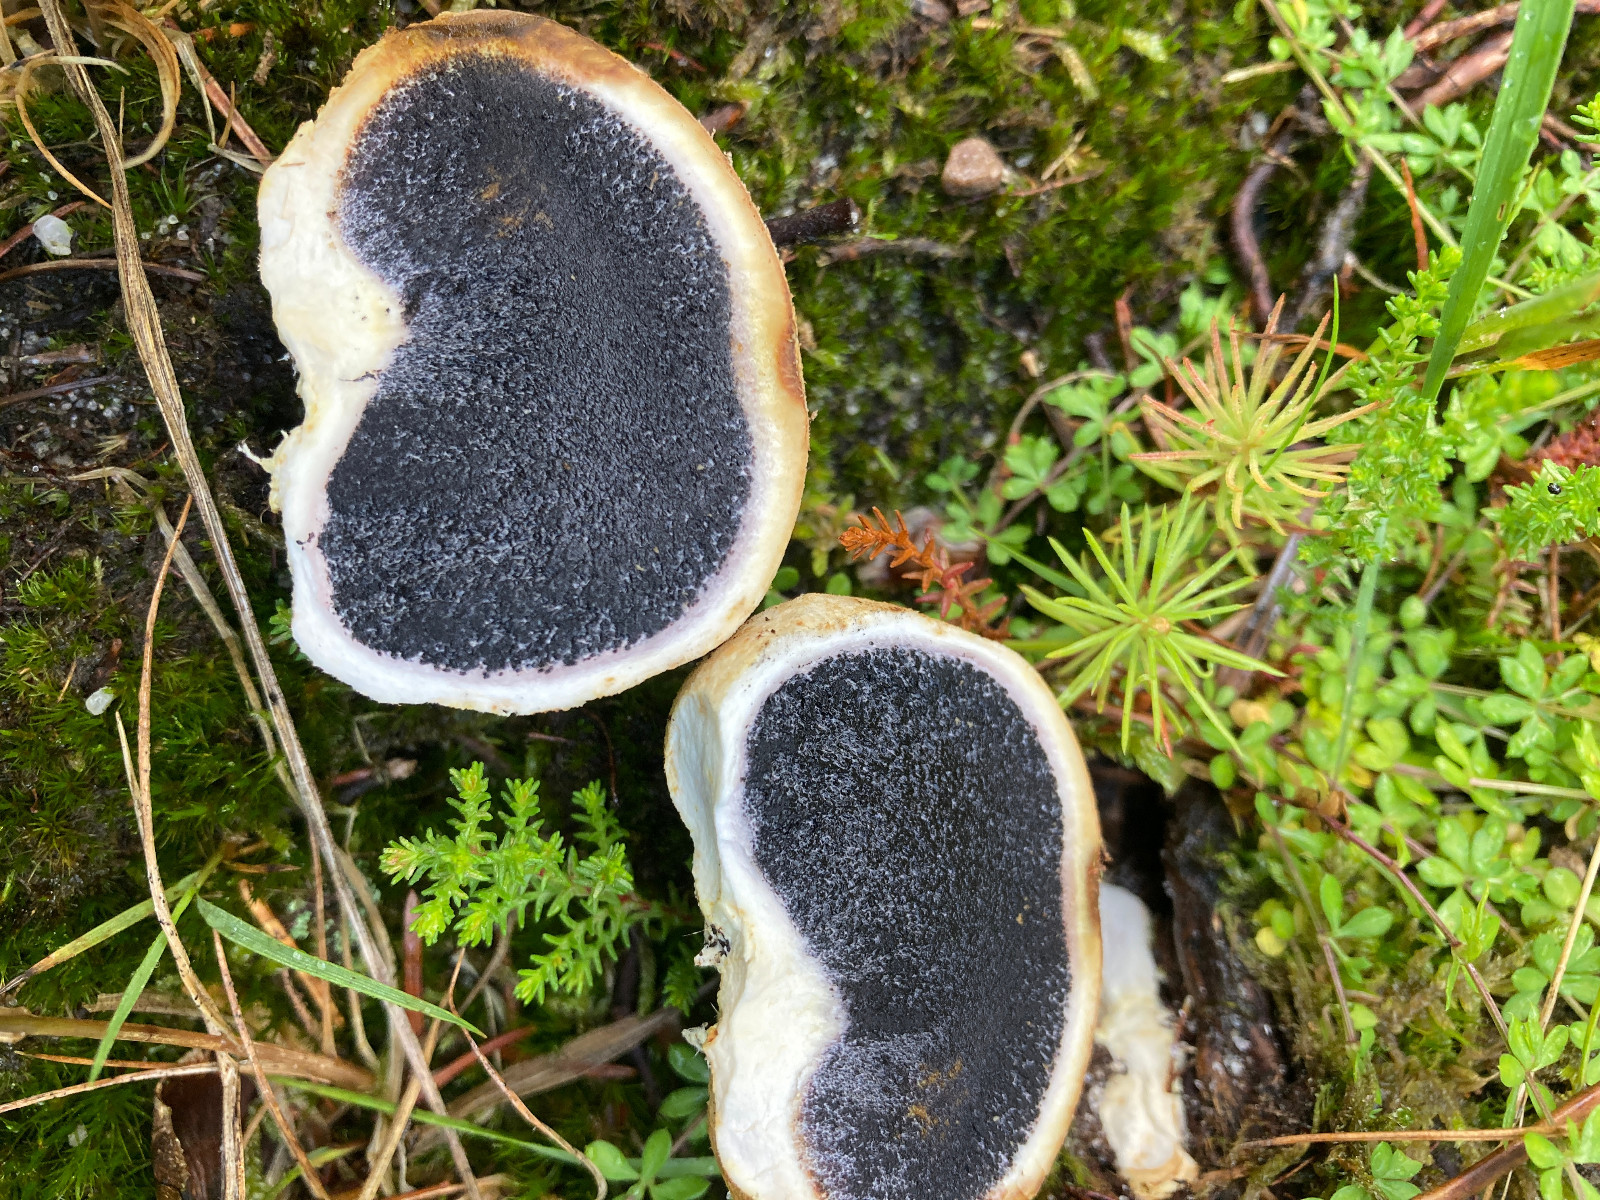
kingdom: Fungi
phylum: Basidiomycota
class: Agaricomycetes
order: Boletales
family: Sclerodermataceae
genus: Scleroderma
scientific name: Scleroderma citrinum
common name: almindelig bruskbold
